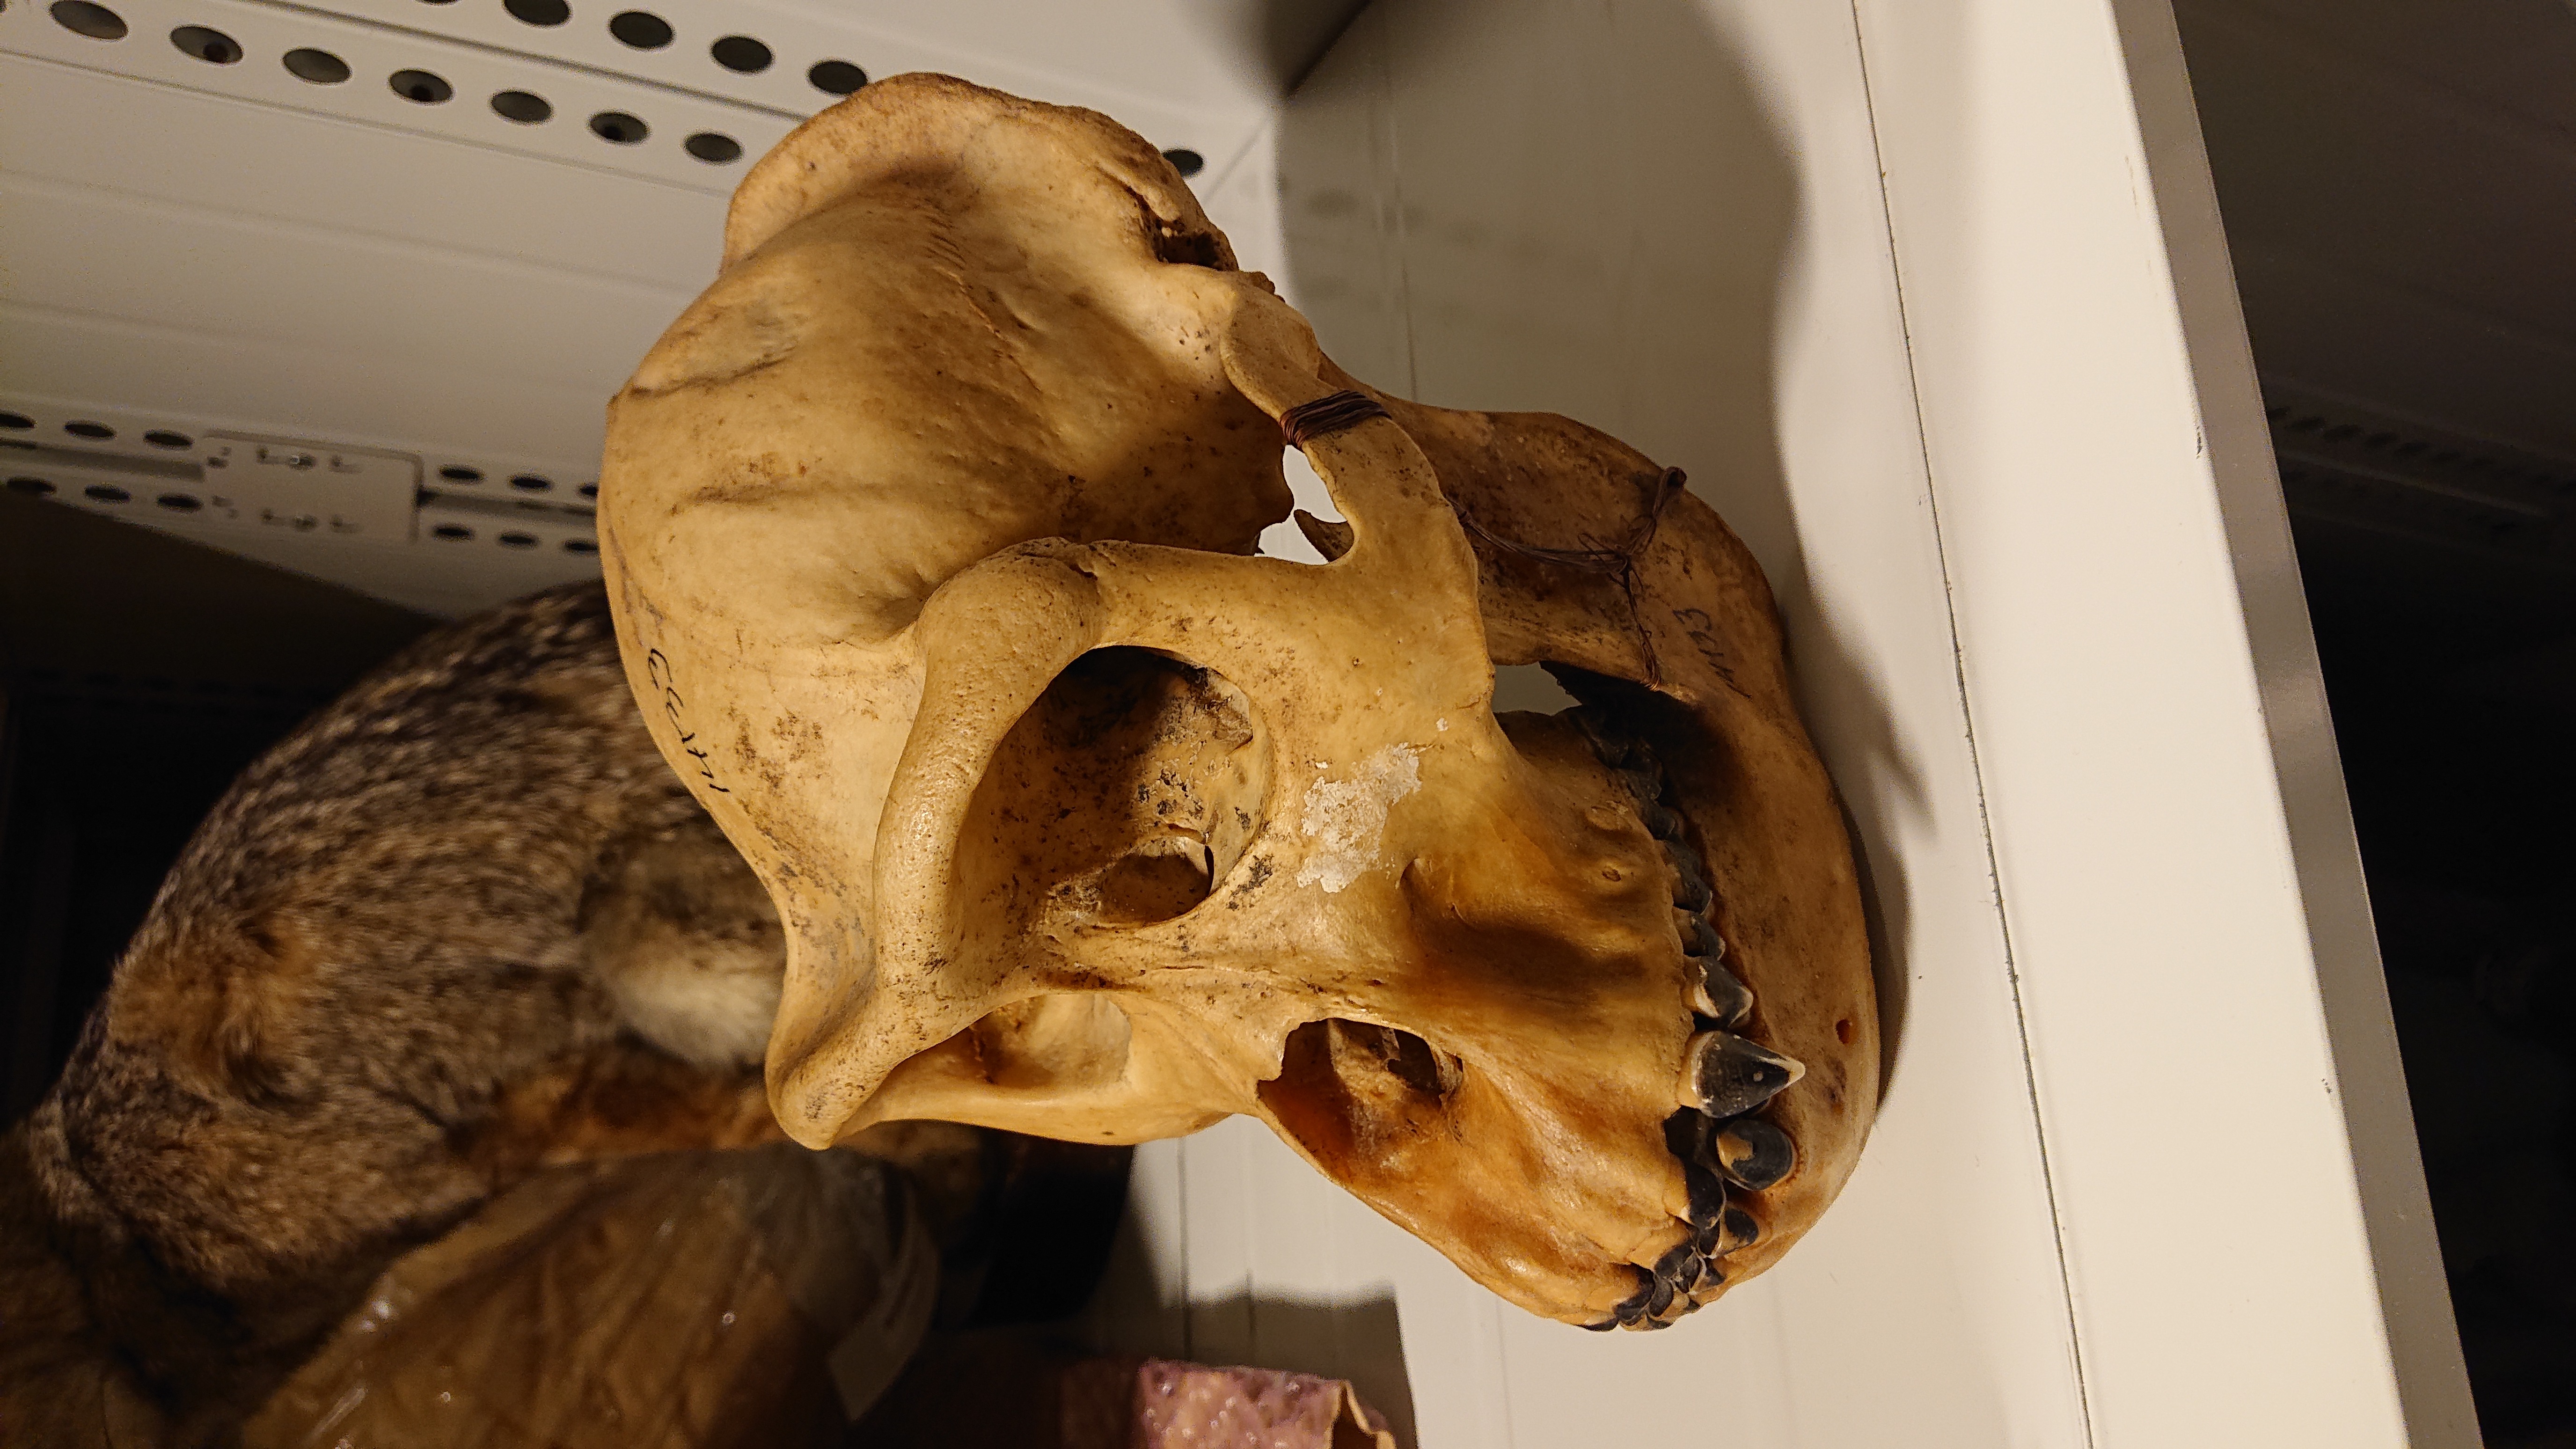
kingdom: Animalia
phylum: Chordata
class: Mammalia
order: Primates
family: Hominidae
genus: Gorilla
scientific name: Gorilla gorilla
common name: Western gorilla
